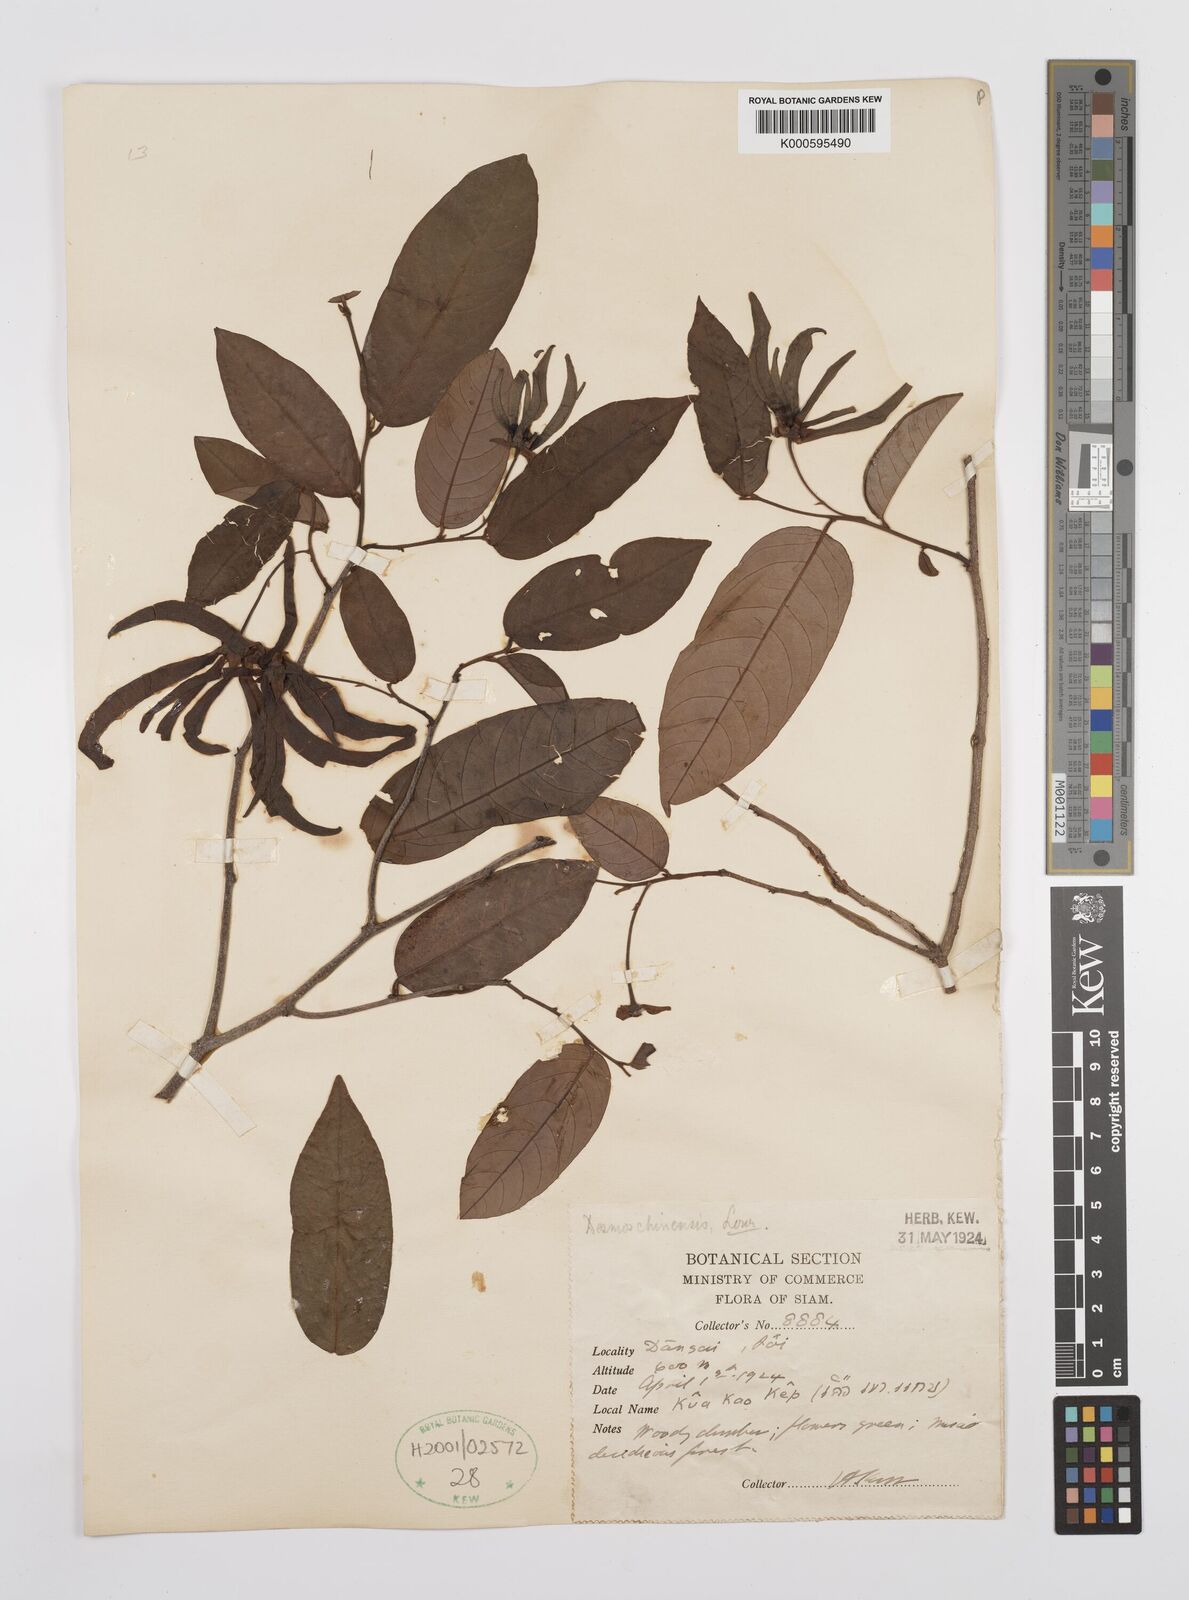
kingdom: Plantae
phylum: Tracheophyta
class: Magnoliopsida
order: Magnoliales
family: Annonaceae
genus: Desmos
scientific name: Desmos chinensis
